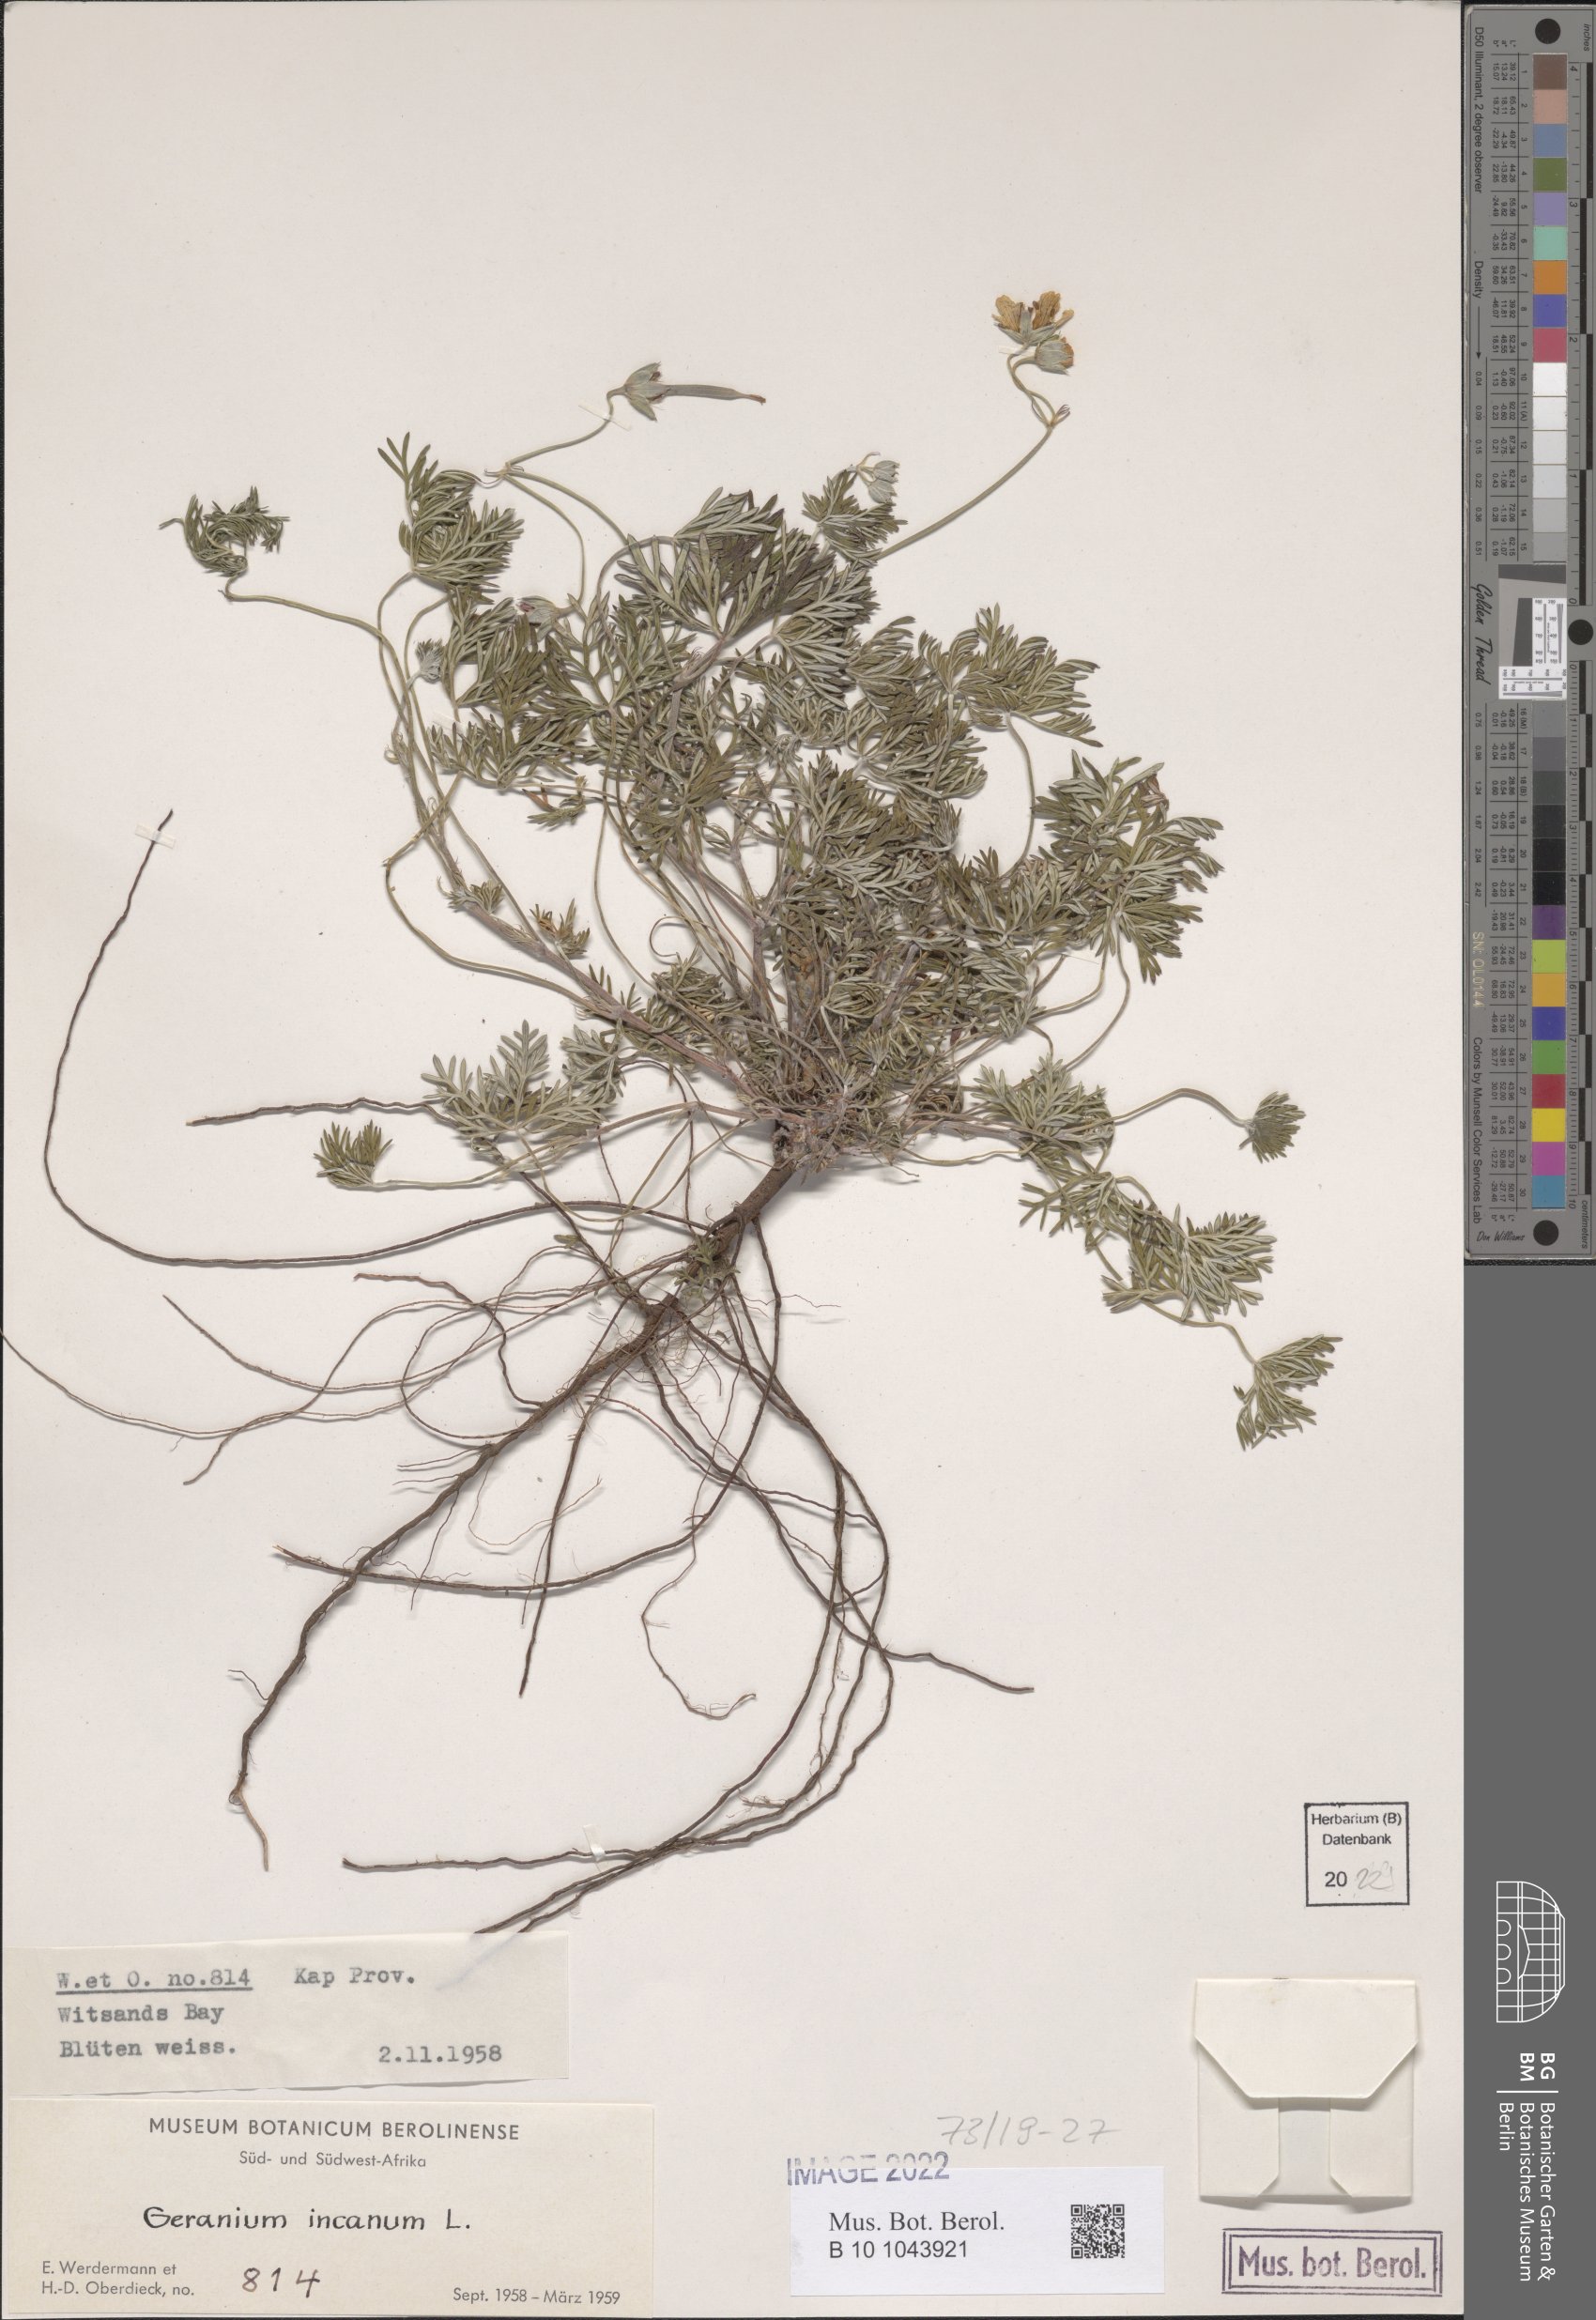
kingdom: Plantae
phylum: Tracheophyta
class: Magnoliopsida
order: Geraniales
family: Geraniaceae
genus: Geranium
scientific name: Geranium incanum
